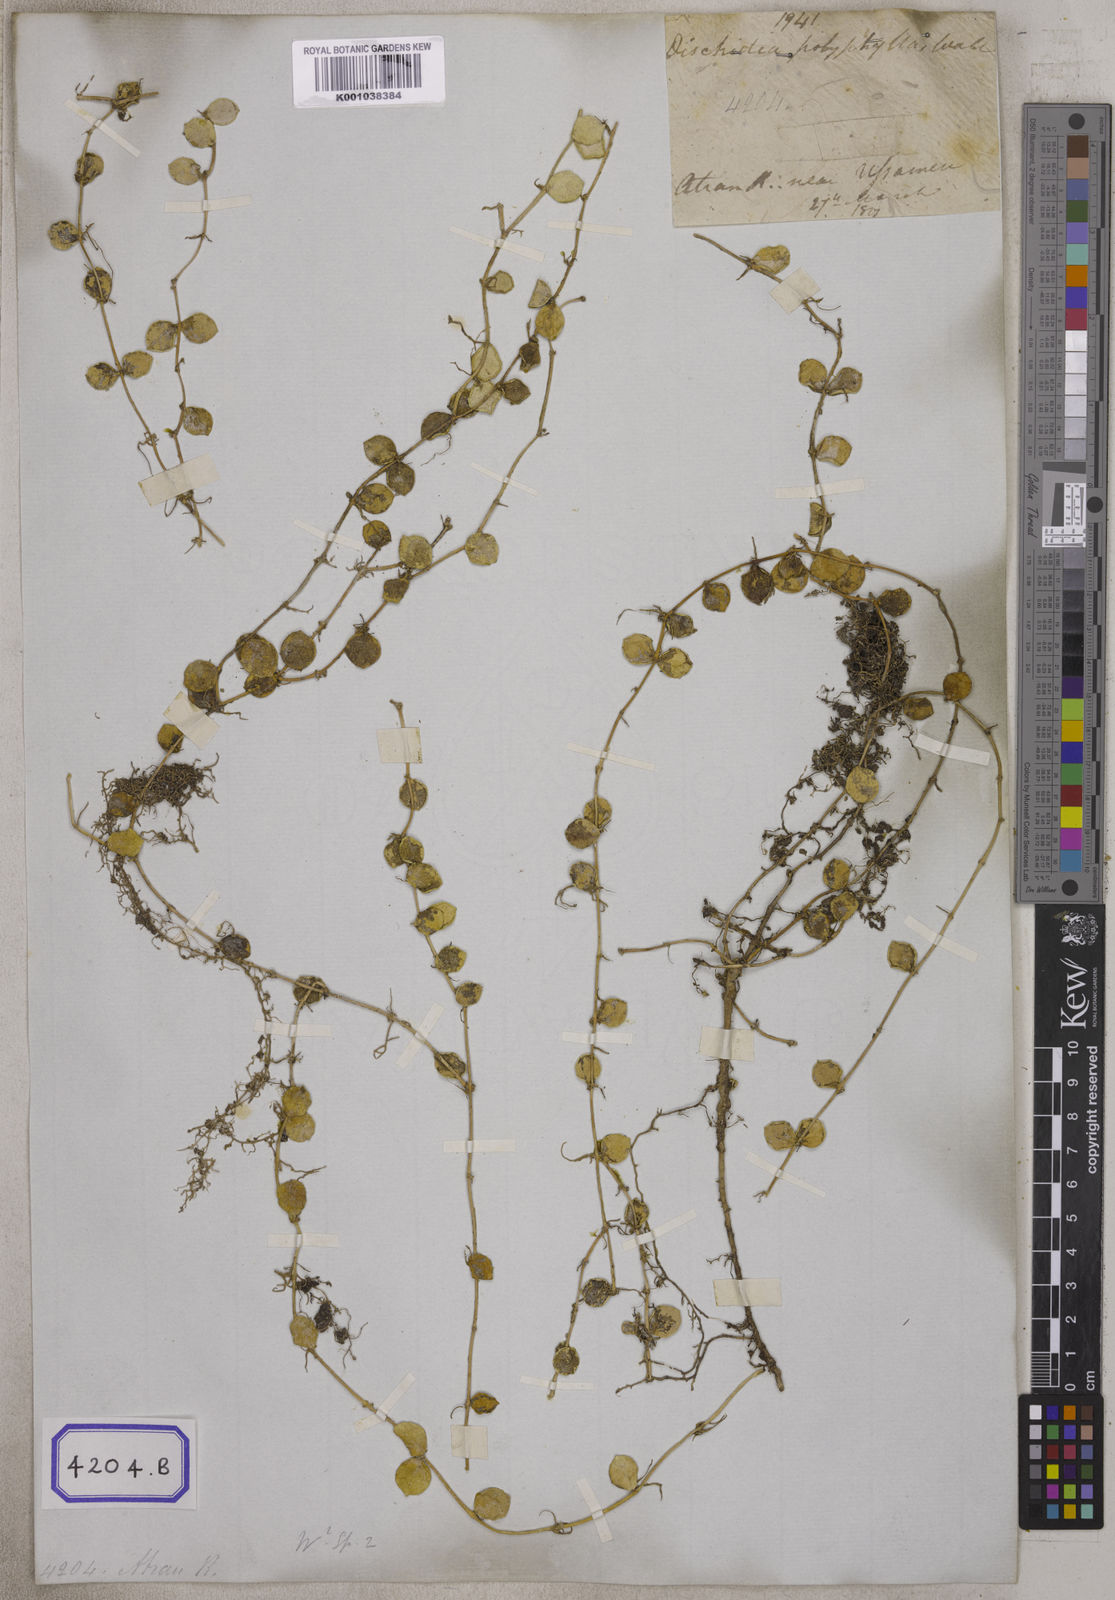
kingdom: Plantae
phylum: Tracheophyta
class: Magnoliopsida
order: Gentianales
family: Apocynaceae
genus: Dischidia
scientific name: Dischidia nummularia
